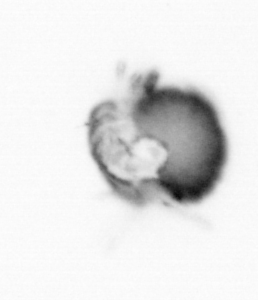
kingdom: Animalia
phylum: Annelida
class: Polychaeta
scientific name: Polychaeta
